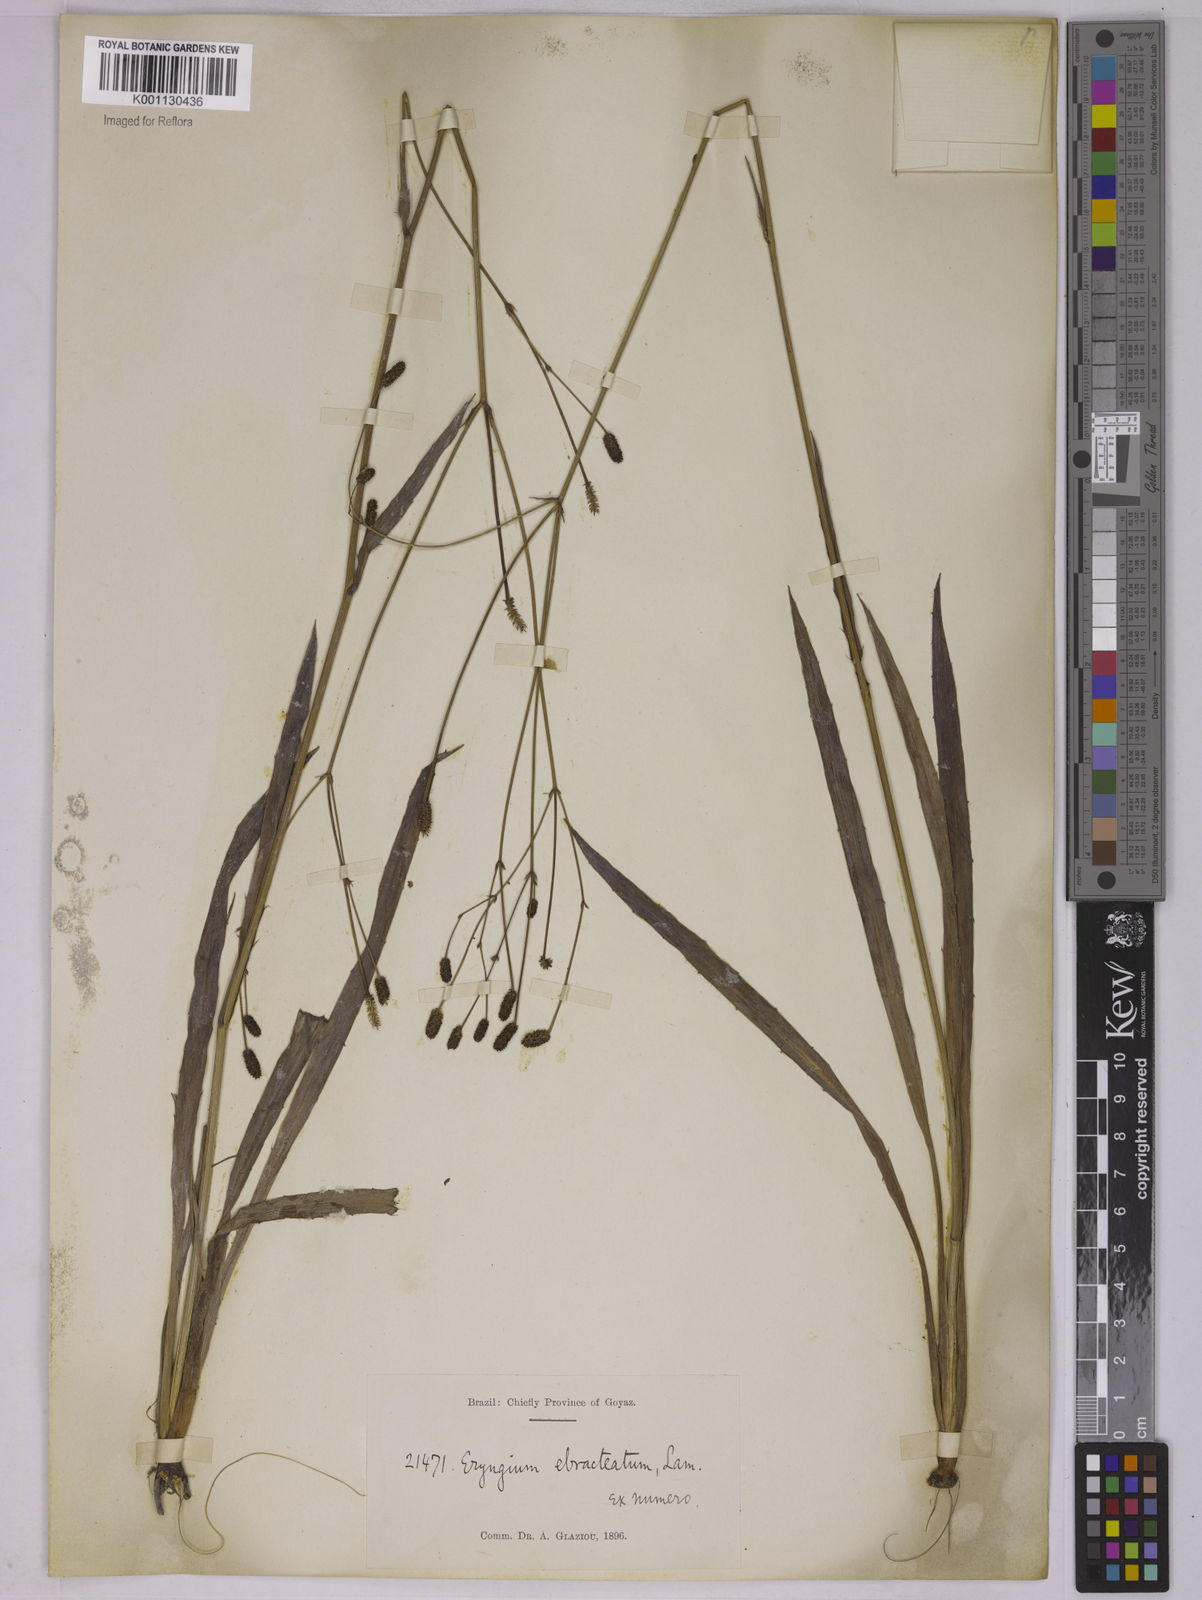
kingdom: Plantae
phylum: Tracheophyta
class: Magnoliopsida
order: Apiales
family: Apiaceae
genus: Eryngium
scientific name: Eryngium ebracteatum
